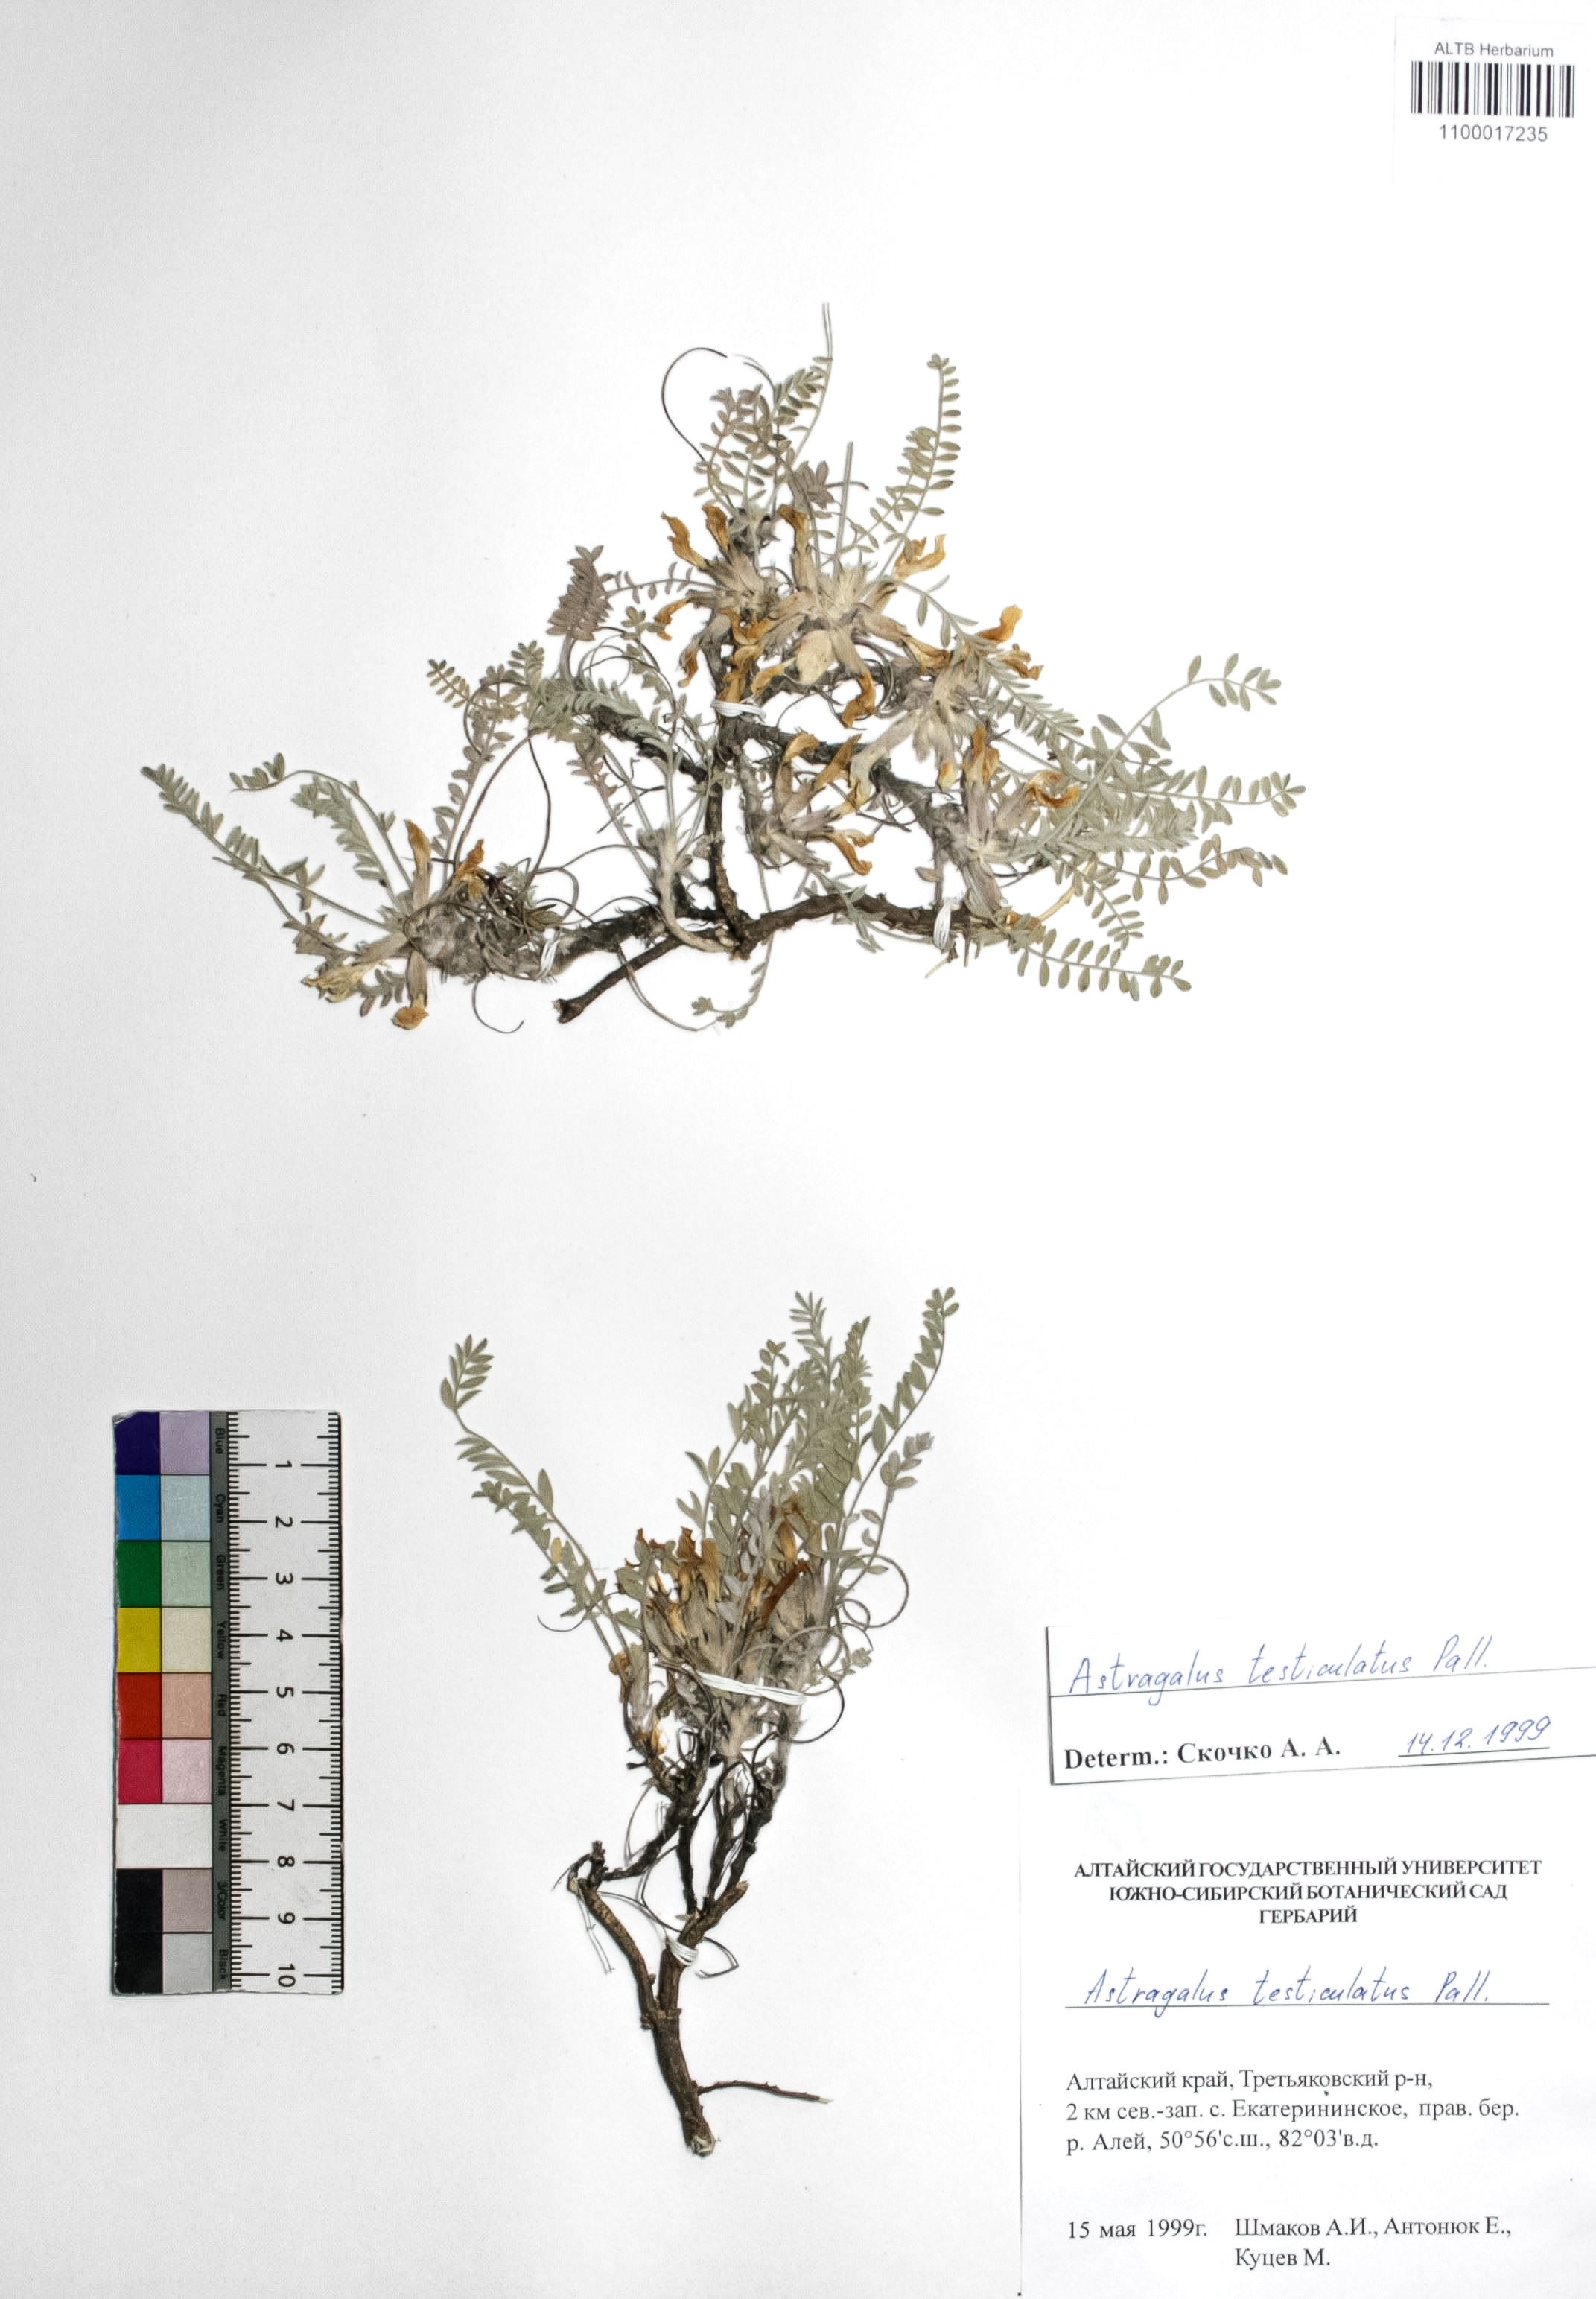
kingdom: Plantae
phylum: Tracheophyta
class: Magnoliopsida
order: Fabales
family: Fabaceae
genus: Astragalus
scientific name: Astragalus testiculatus
